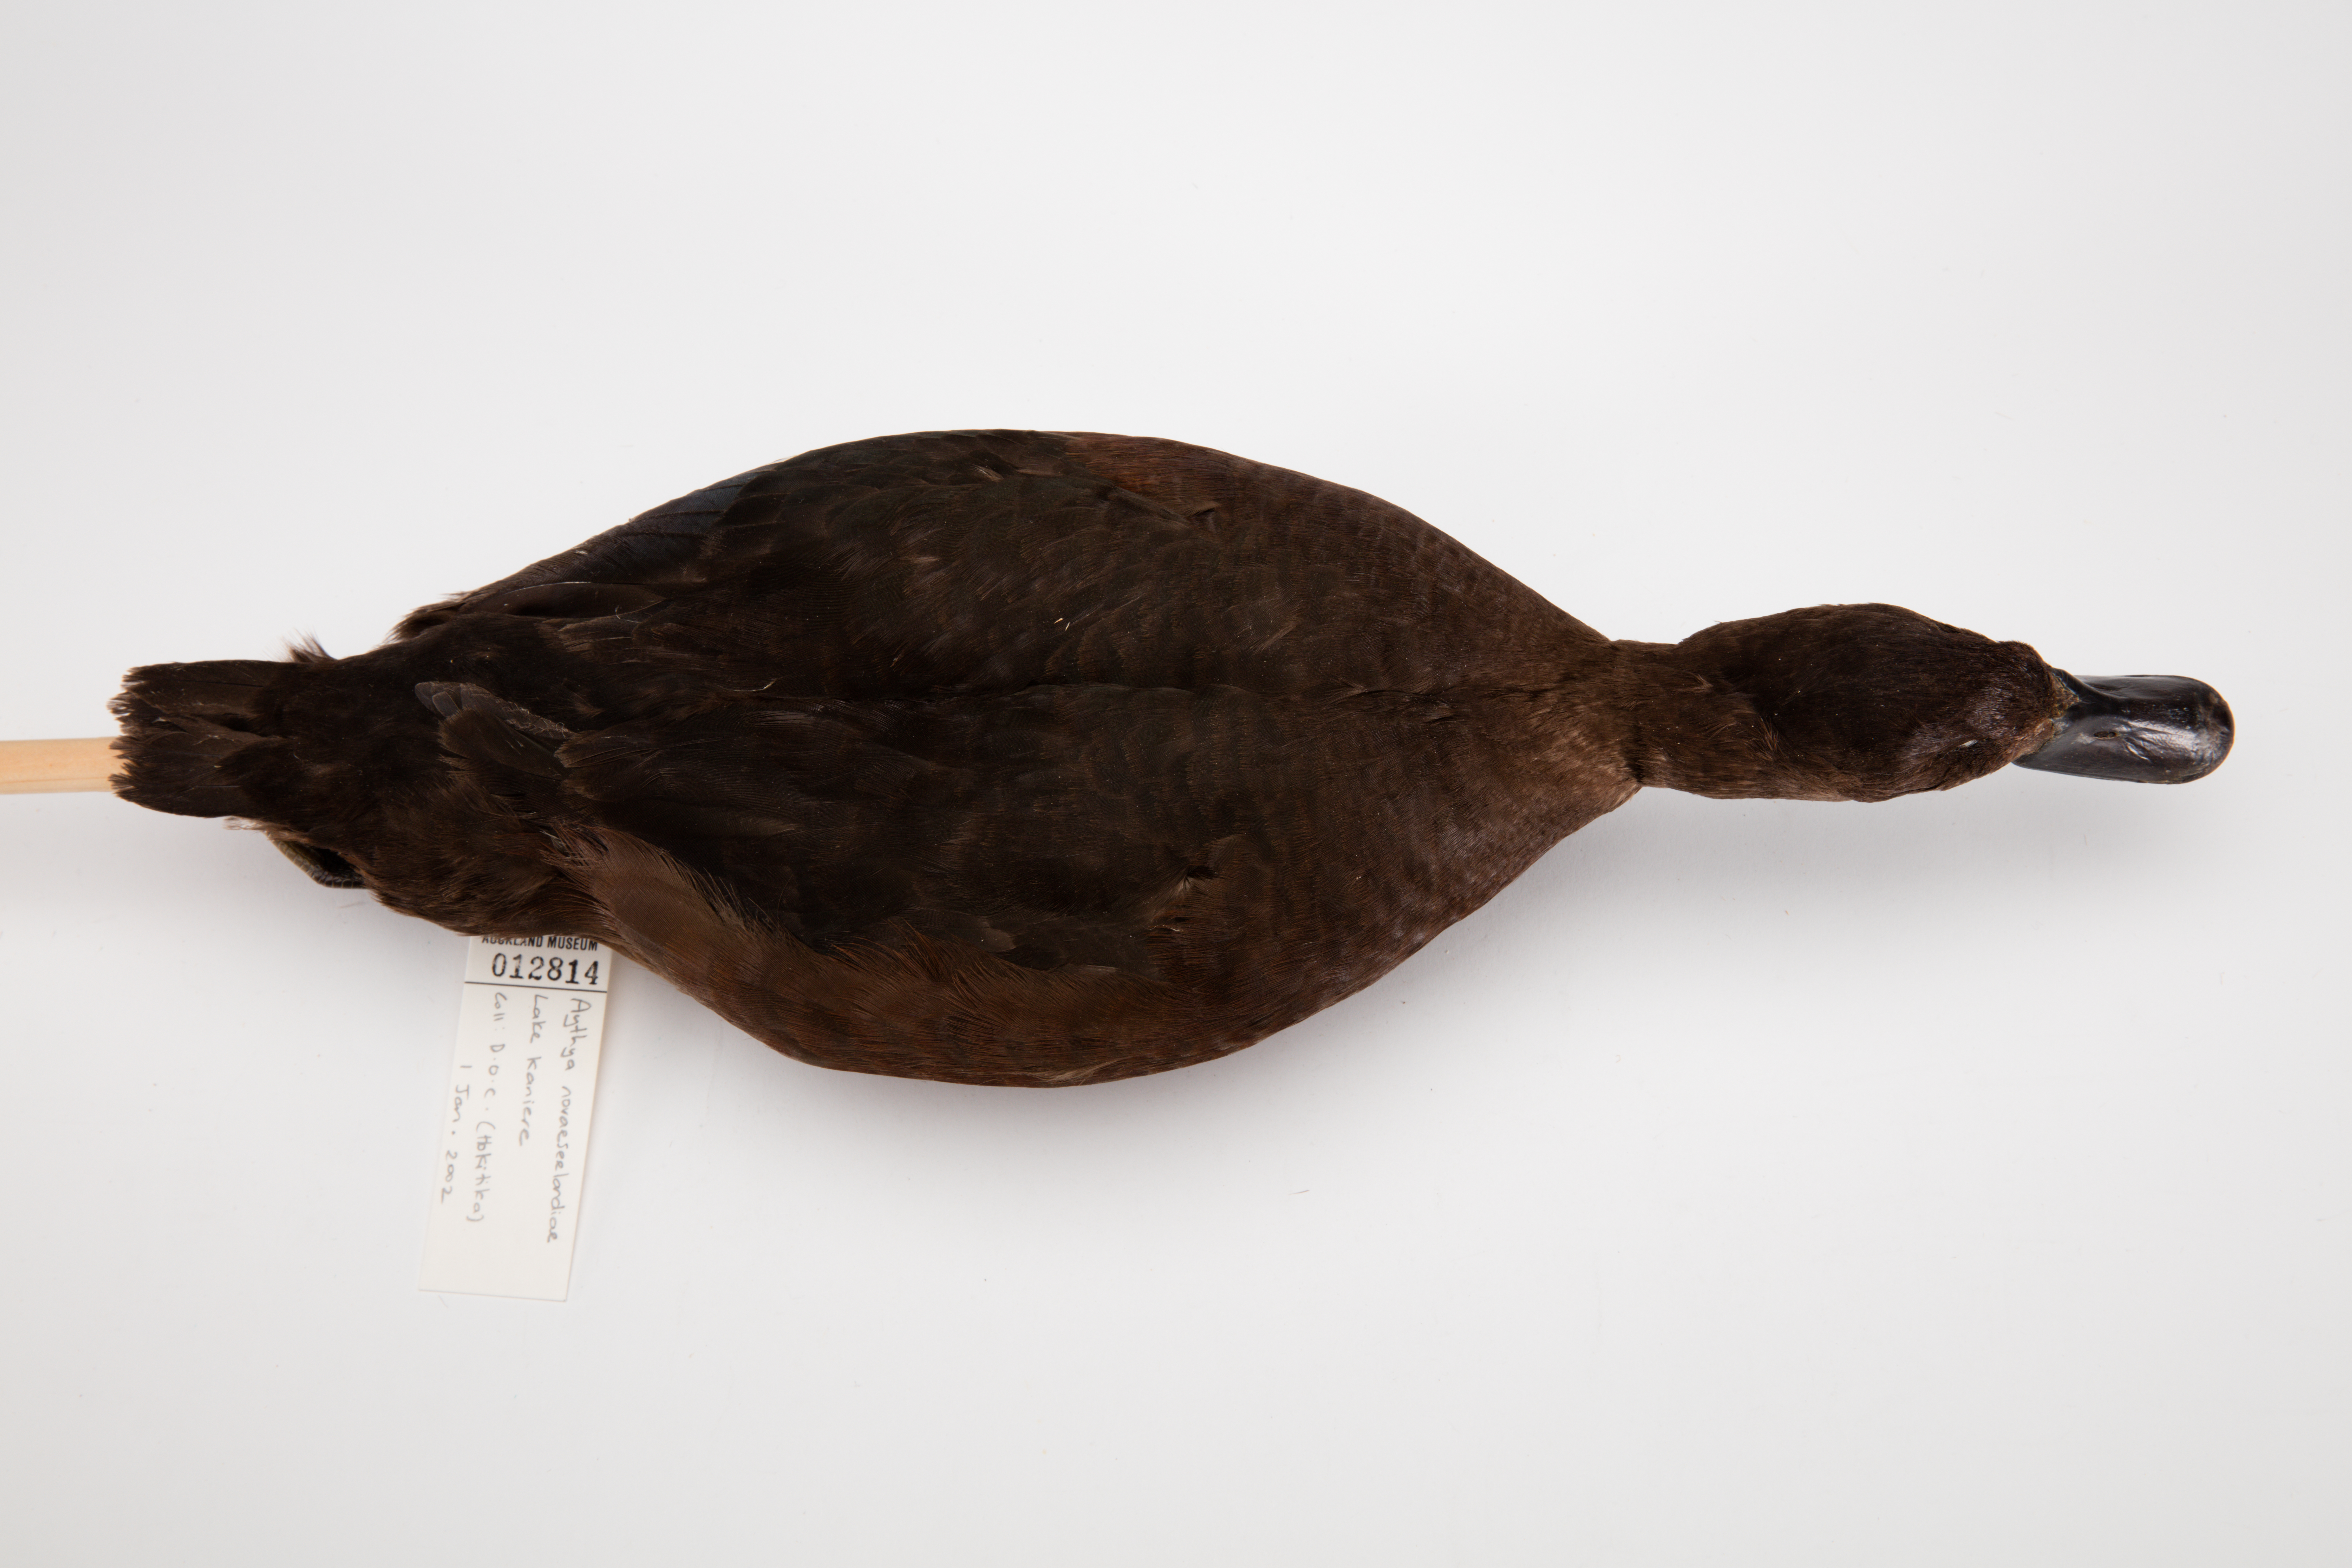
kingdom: Animalia
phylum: Chordata
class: Aves
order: Anseriformes
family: Anatidae
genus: Aythya
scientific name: Aythya novaeseelandiae
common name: New zealand scaup
